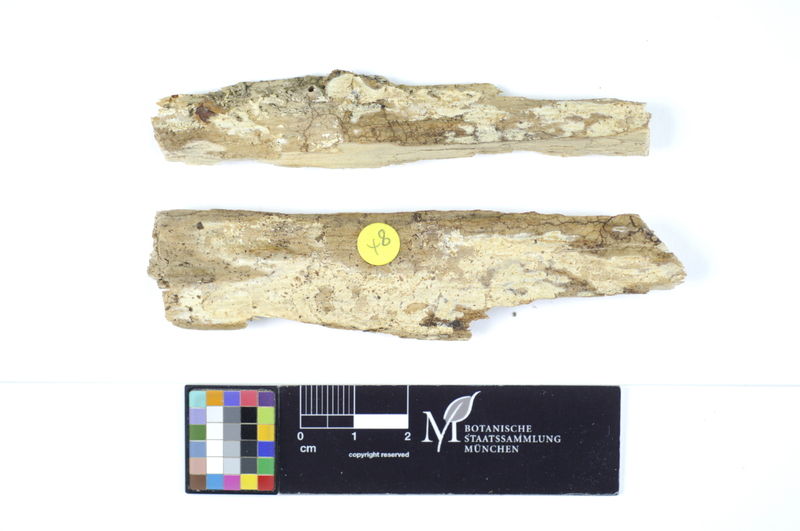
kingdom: Fungi
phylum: Basidiomycota
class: Agaricomycetes
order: Polyporales
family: Hyphodermataceae
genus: Hyphoderma
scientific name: Hyphoderma roseocremeum
